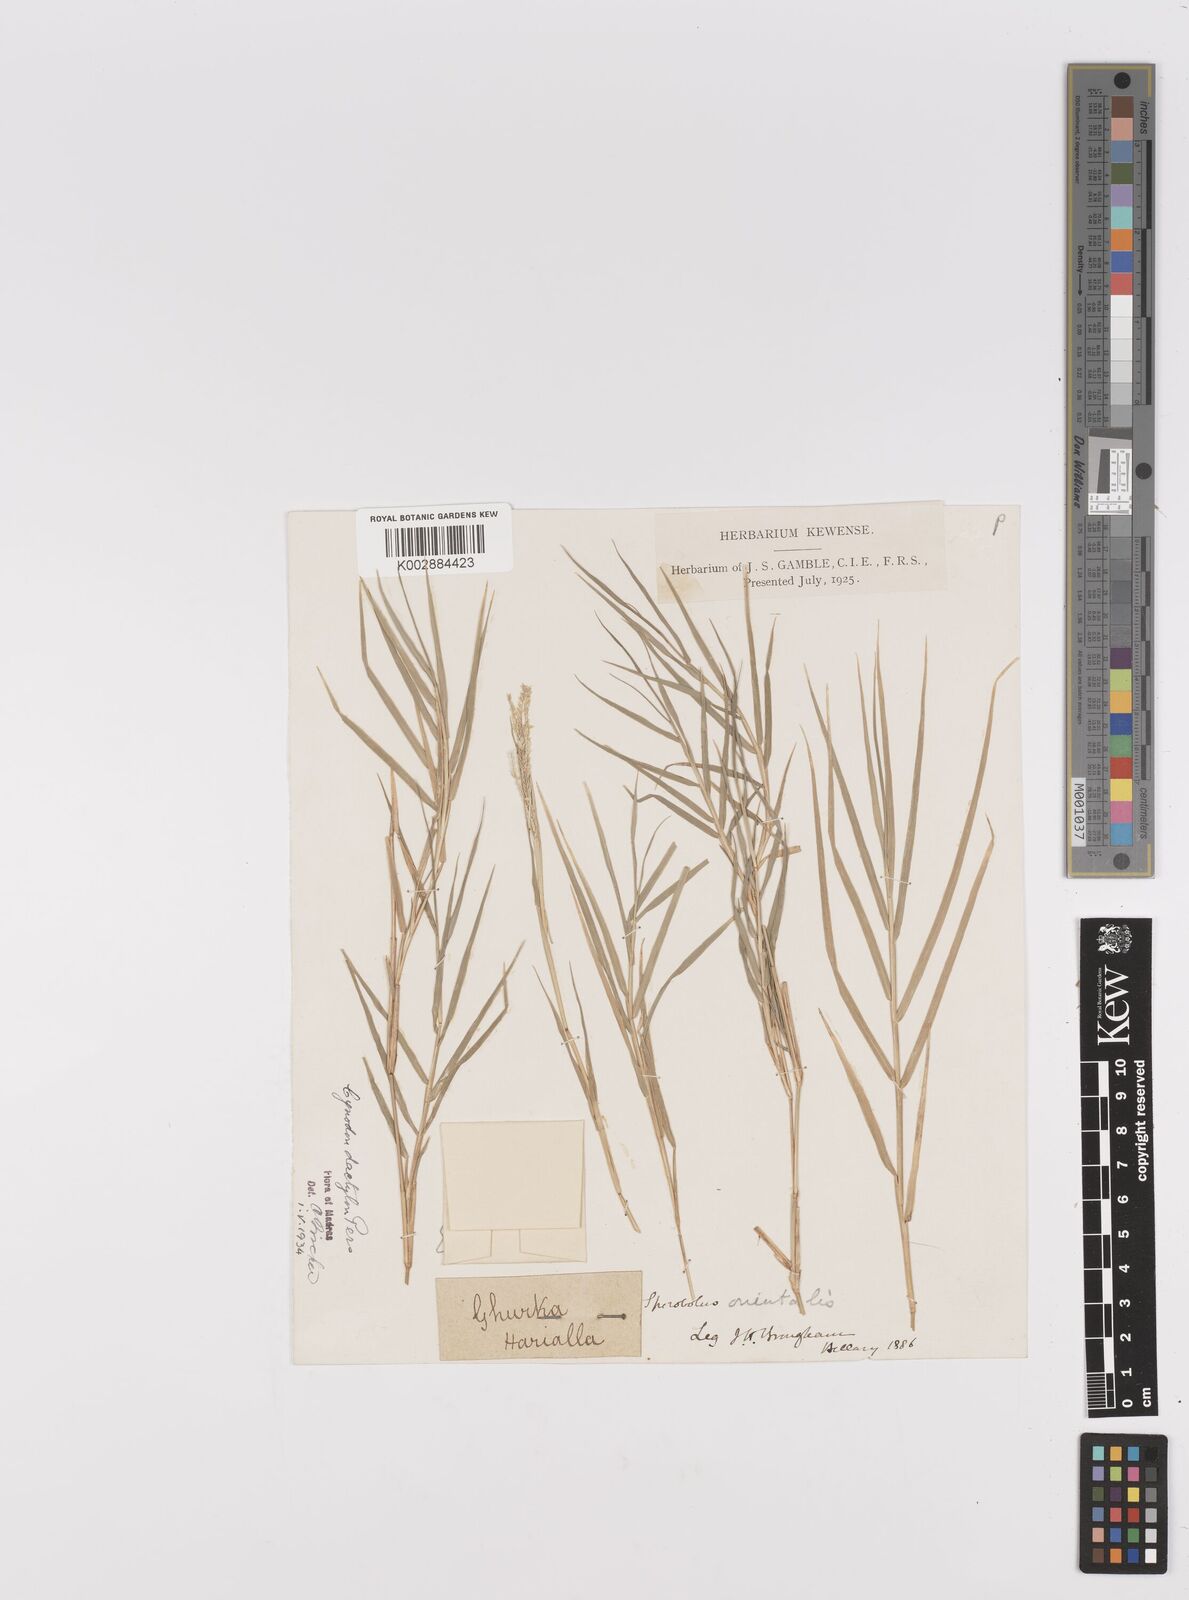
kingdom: Plantae
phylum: Tracheophyta
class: Liliopsida
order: Poales
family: Poaceae
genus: Cynodon
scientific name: Cynodon dactylon
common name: Bermuda grass
